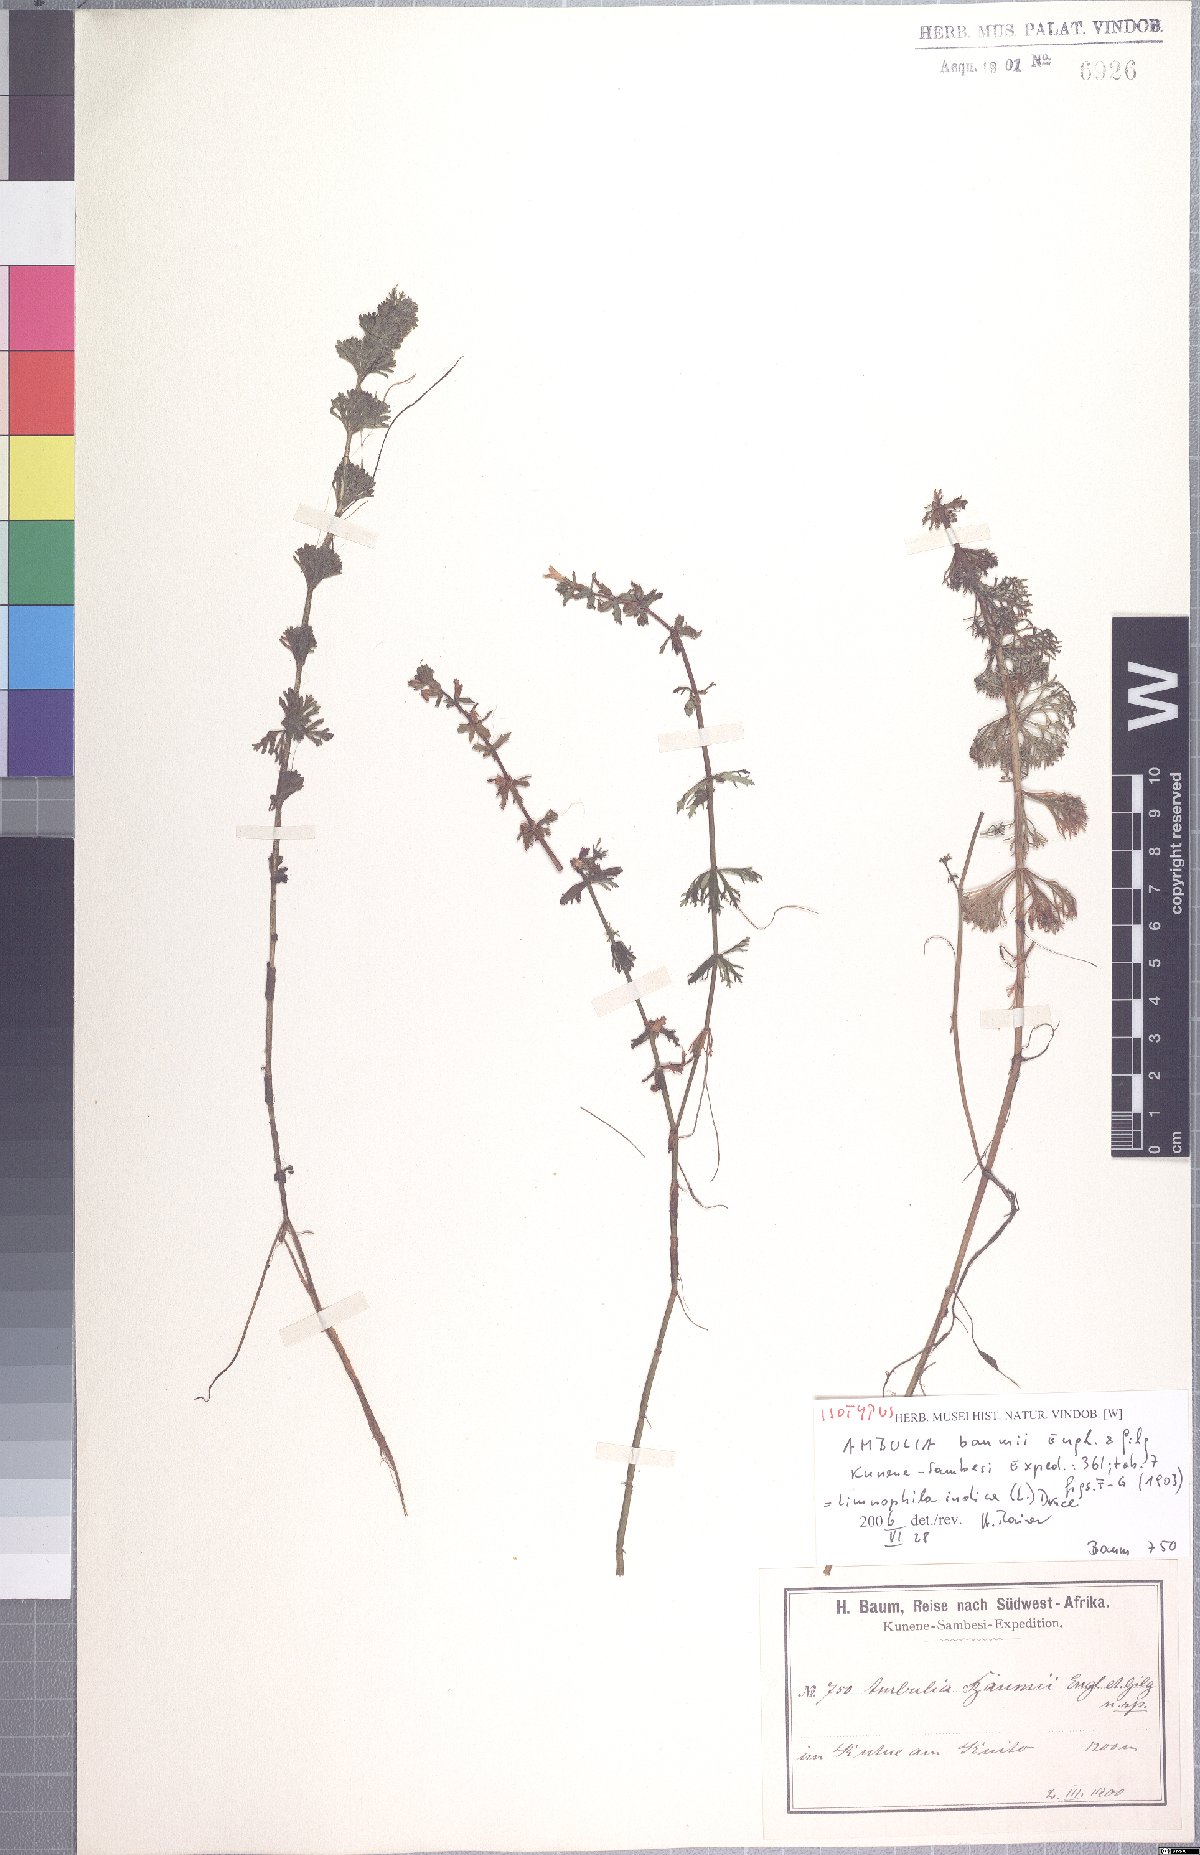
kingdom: Plantae
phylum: Tracheophyta
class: Magnoliopsida
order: Lamiales
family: Plantaginaceae
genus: Limnophila
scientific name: Limnophila indica
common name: Indian marshweed
